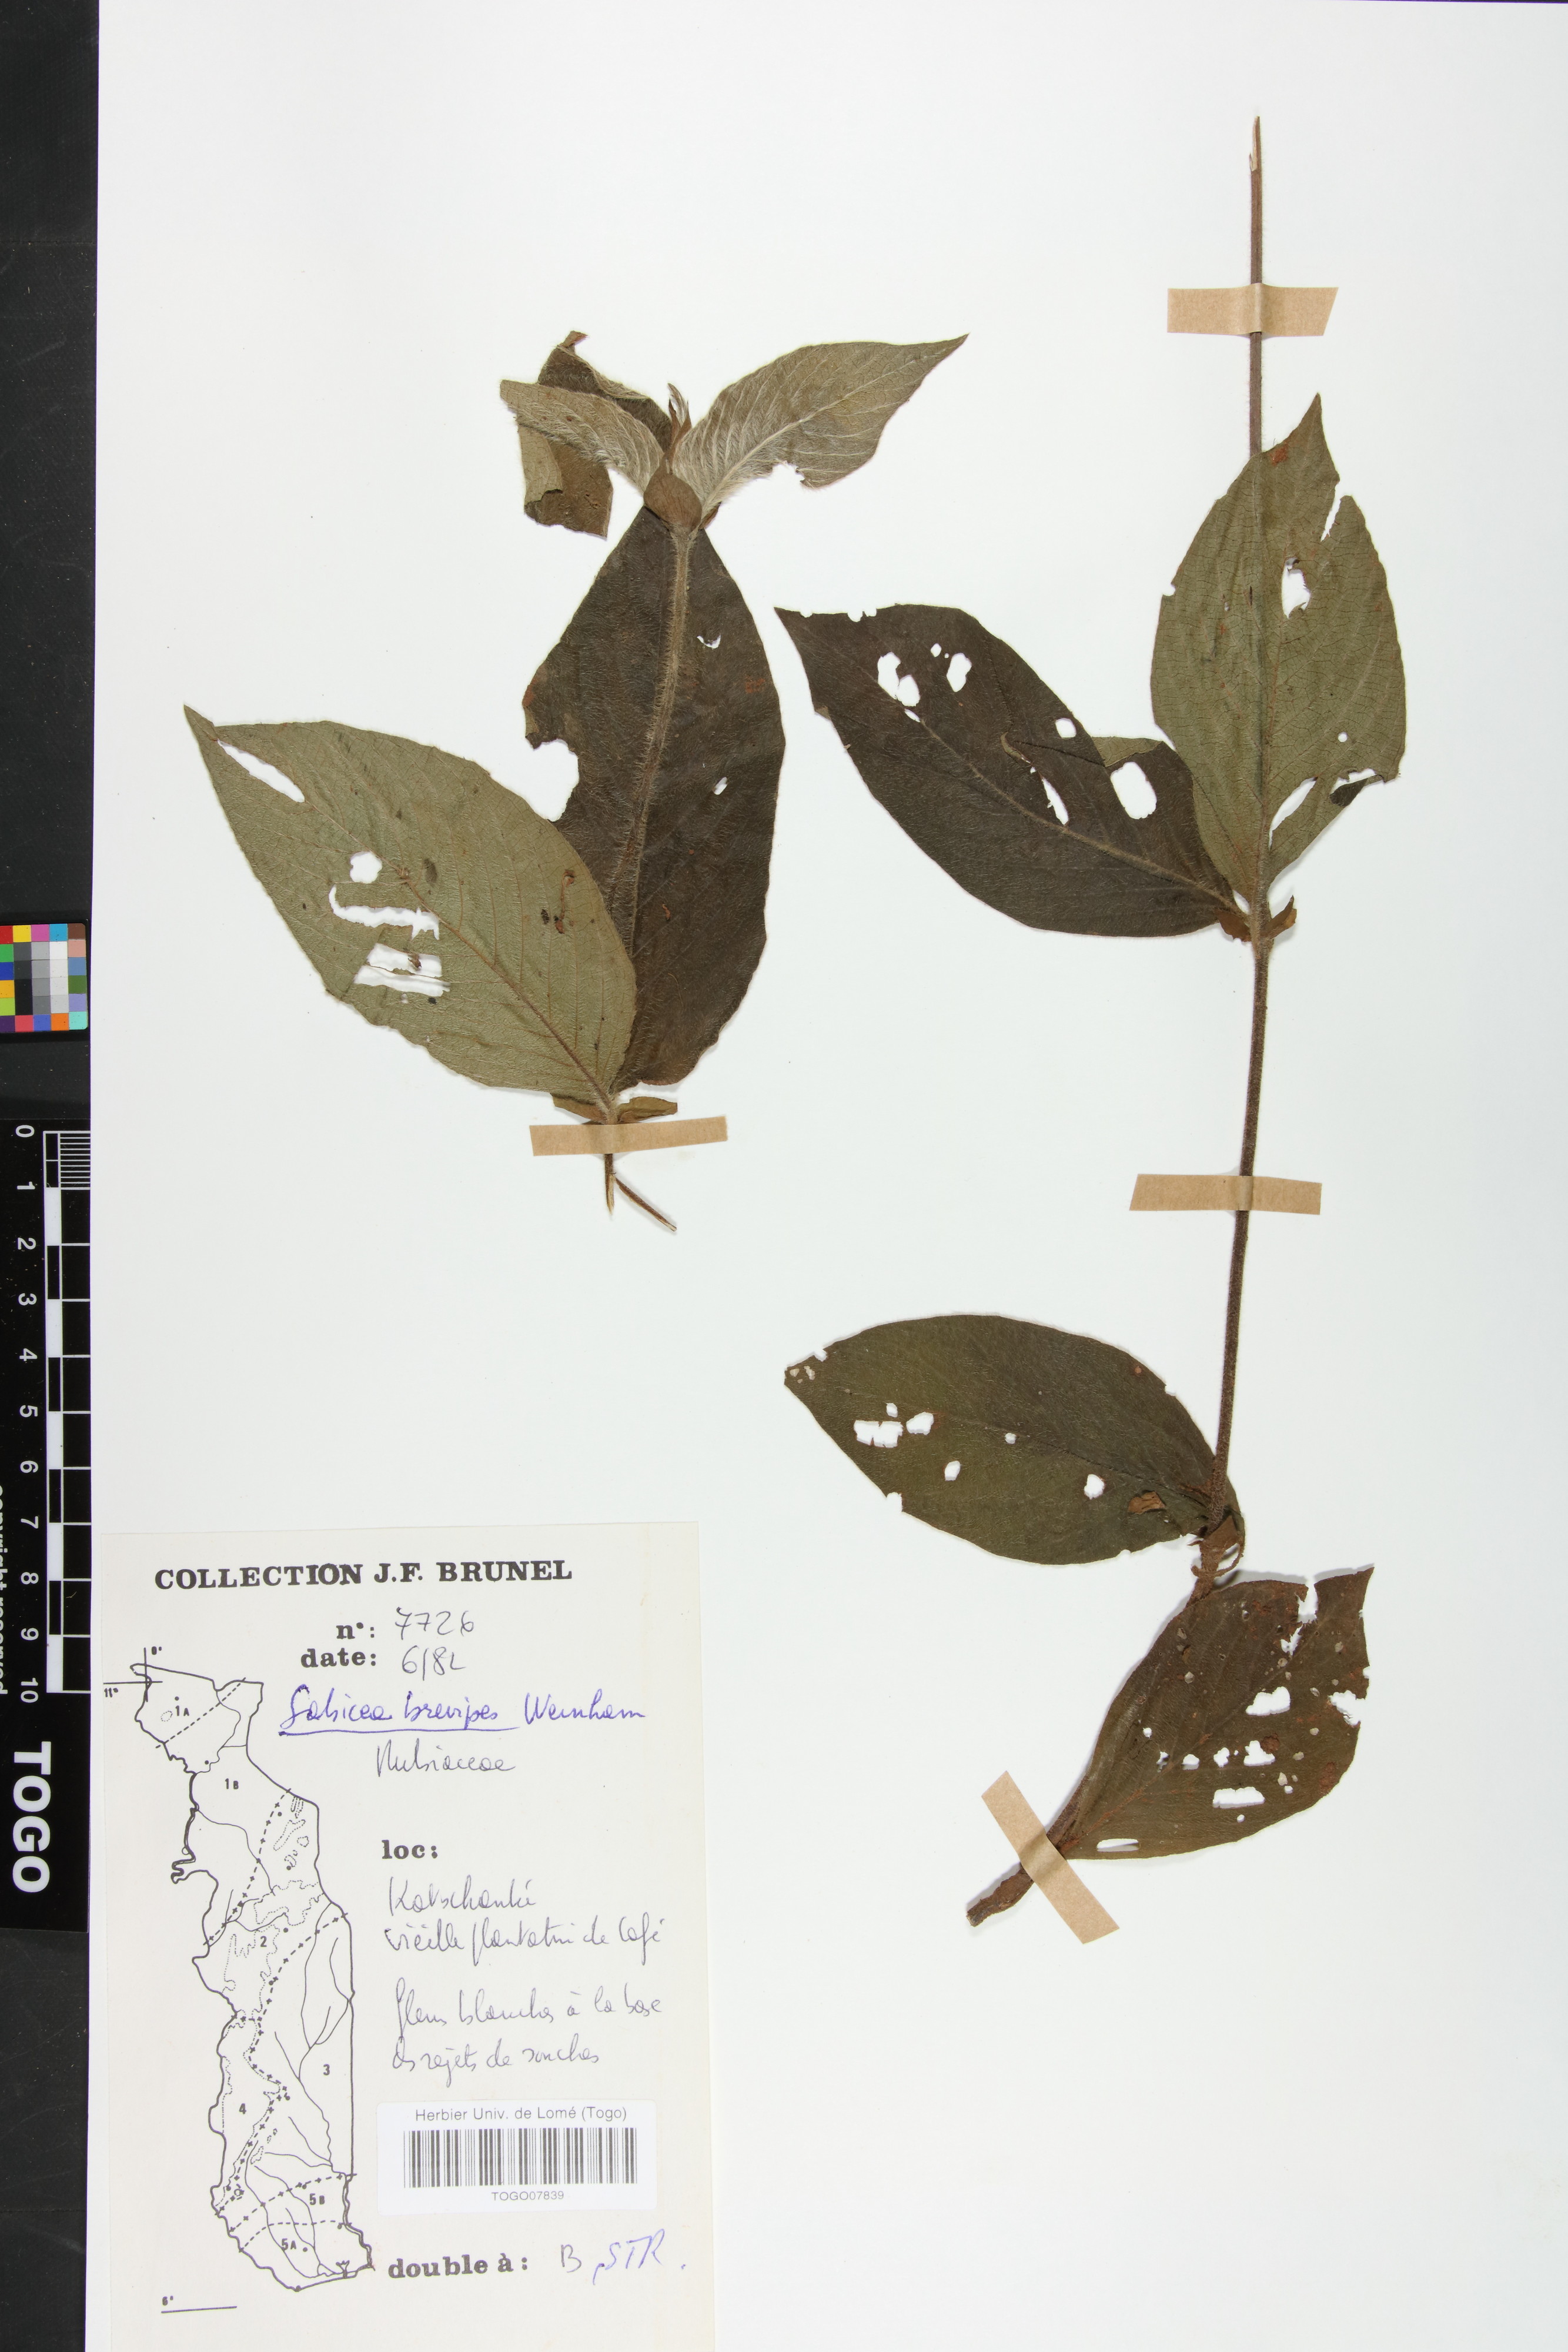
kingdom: Plantae
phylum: Tracheophyta
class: Magnoliopsida
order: Gentianales
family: Rubiaceae
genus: Sabicea
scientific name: Sabicea brevipes
